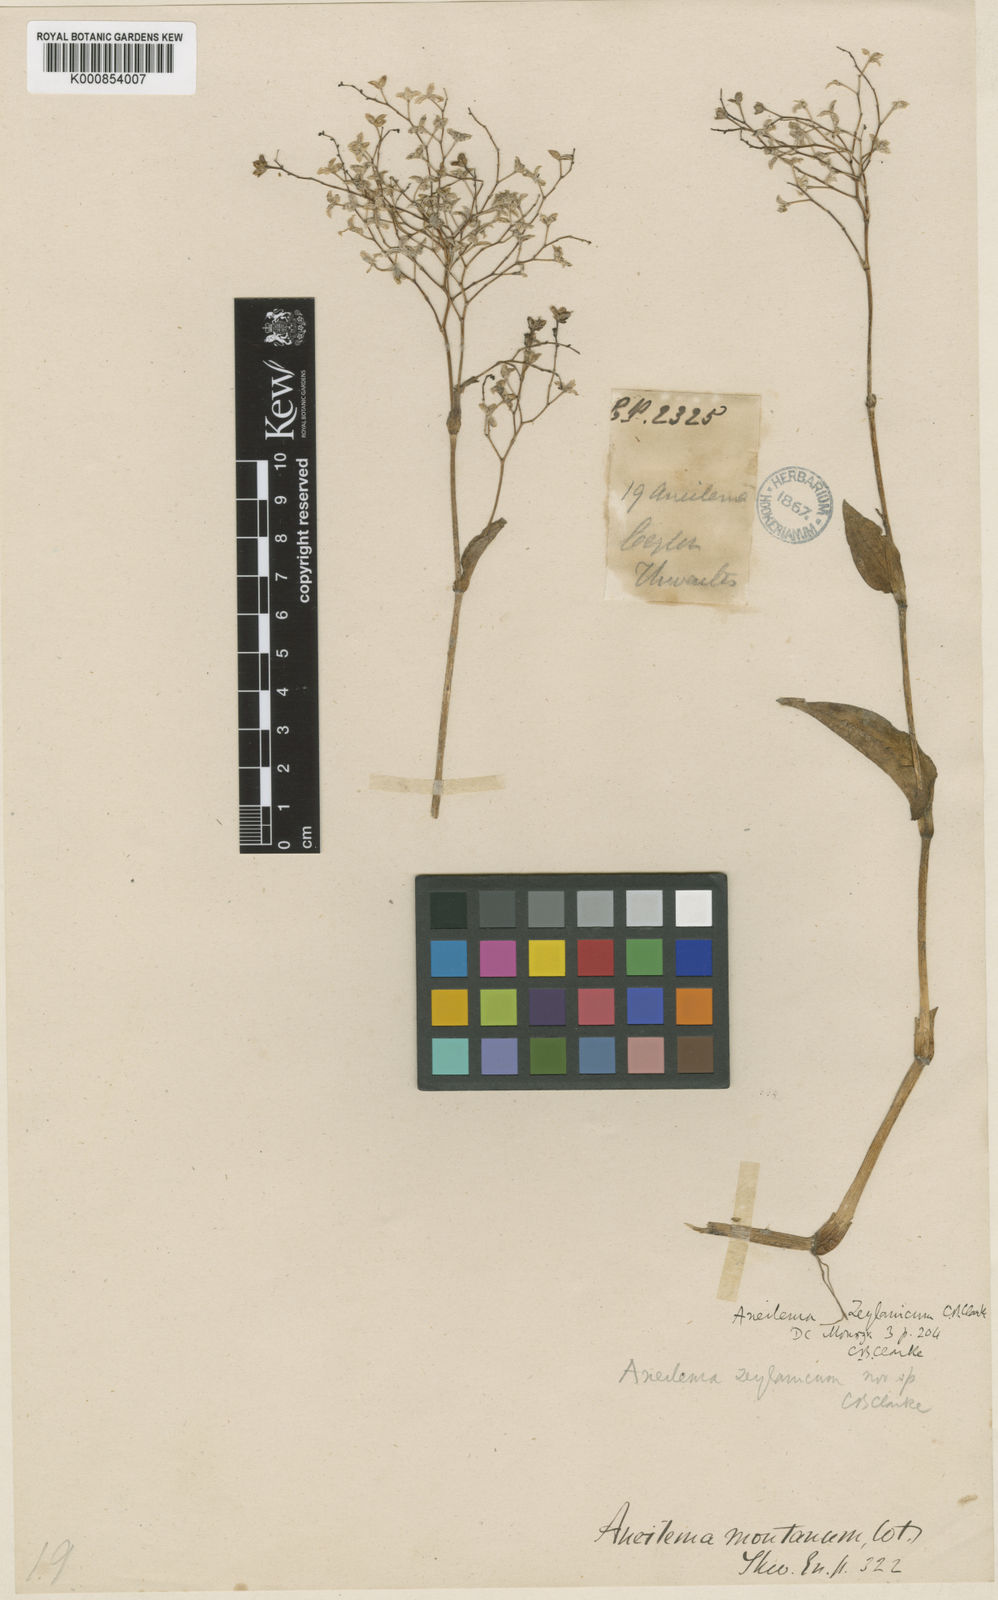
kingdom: Plantae
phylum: Tracheophyta
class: Liliopsida
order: Commelinales
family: Commelinaceae
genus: Murdannia
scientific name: Murdannia
